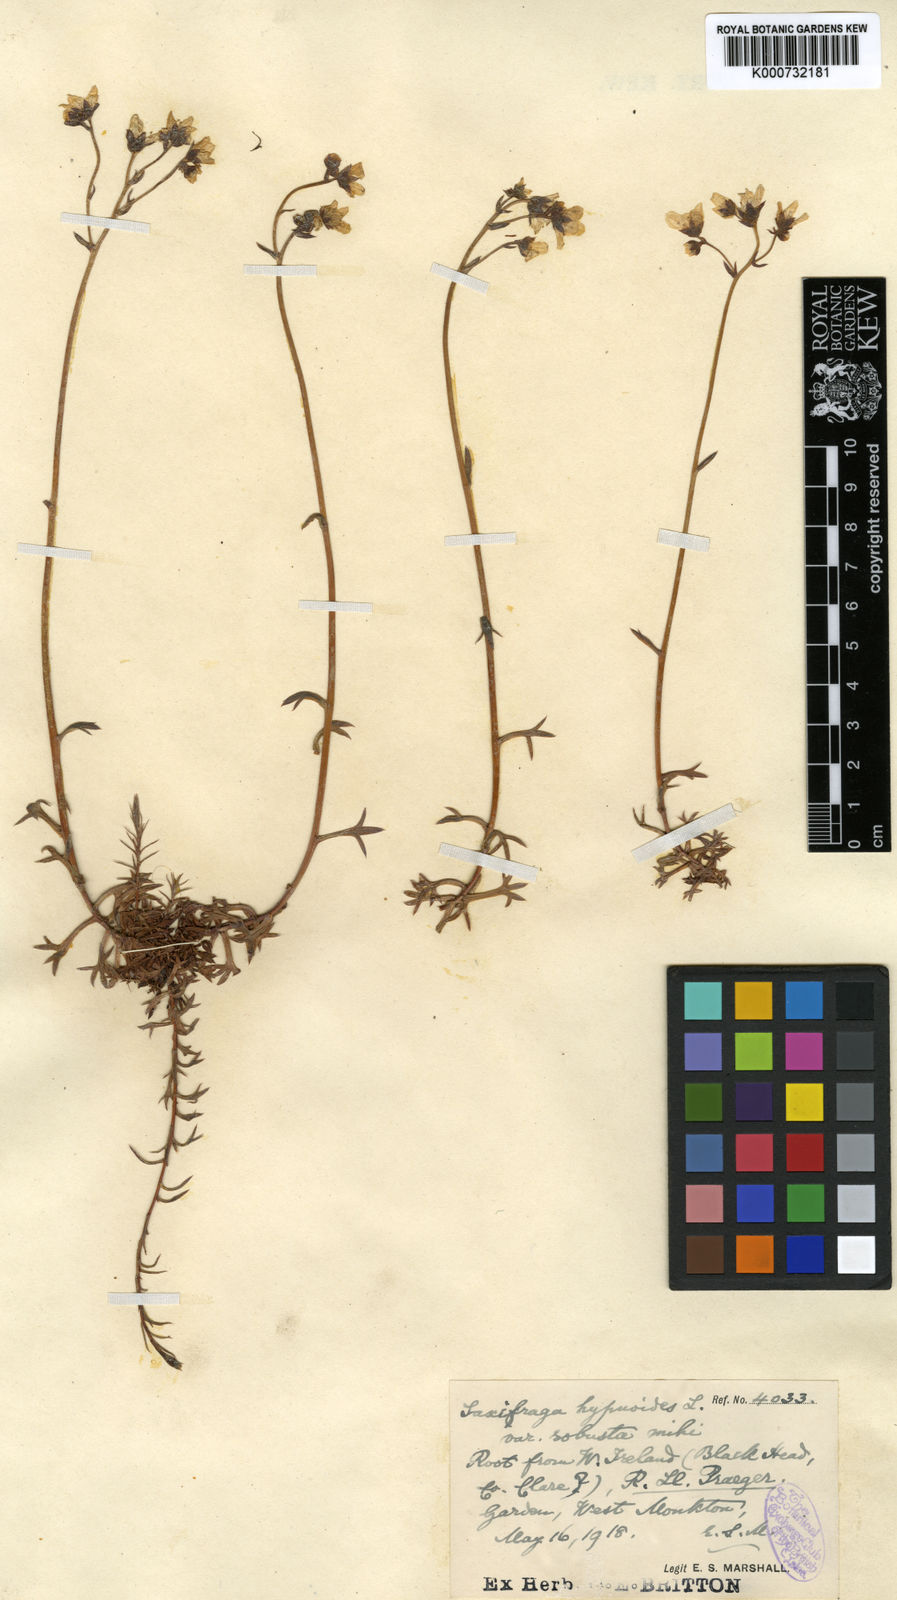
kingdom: Plantae
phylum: Tracheophyta
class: Magnoliopsida
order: Saxifragales
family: Saxifragaceae
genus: Saxifraga
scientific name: Saxifraga hypnoides
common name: Mossy saxifrage
